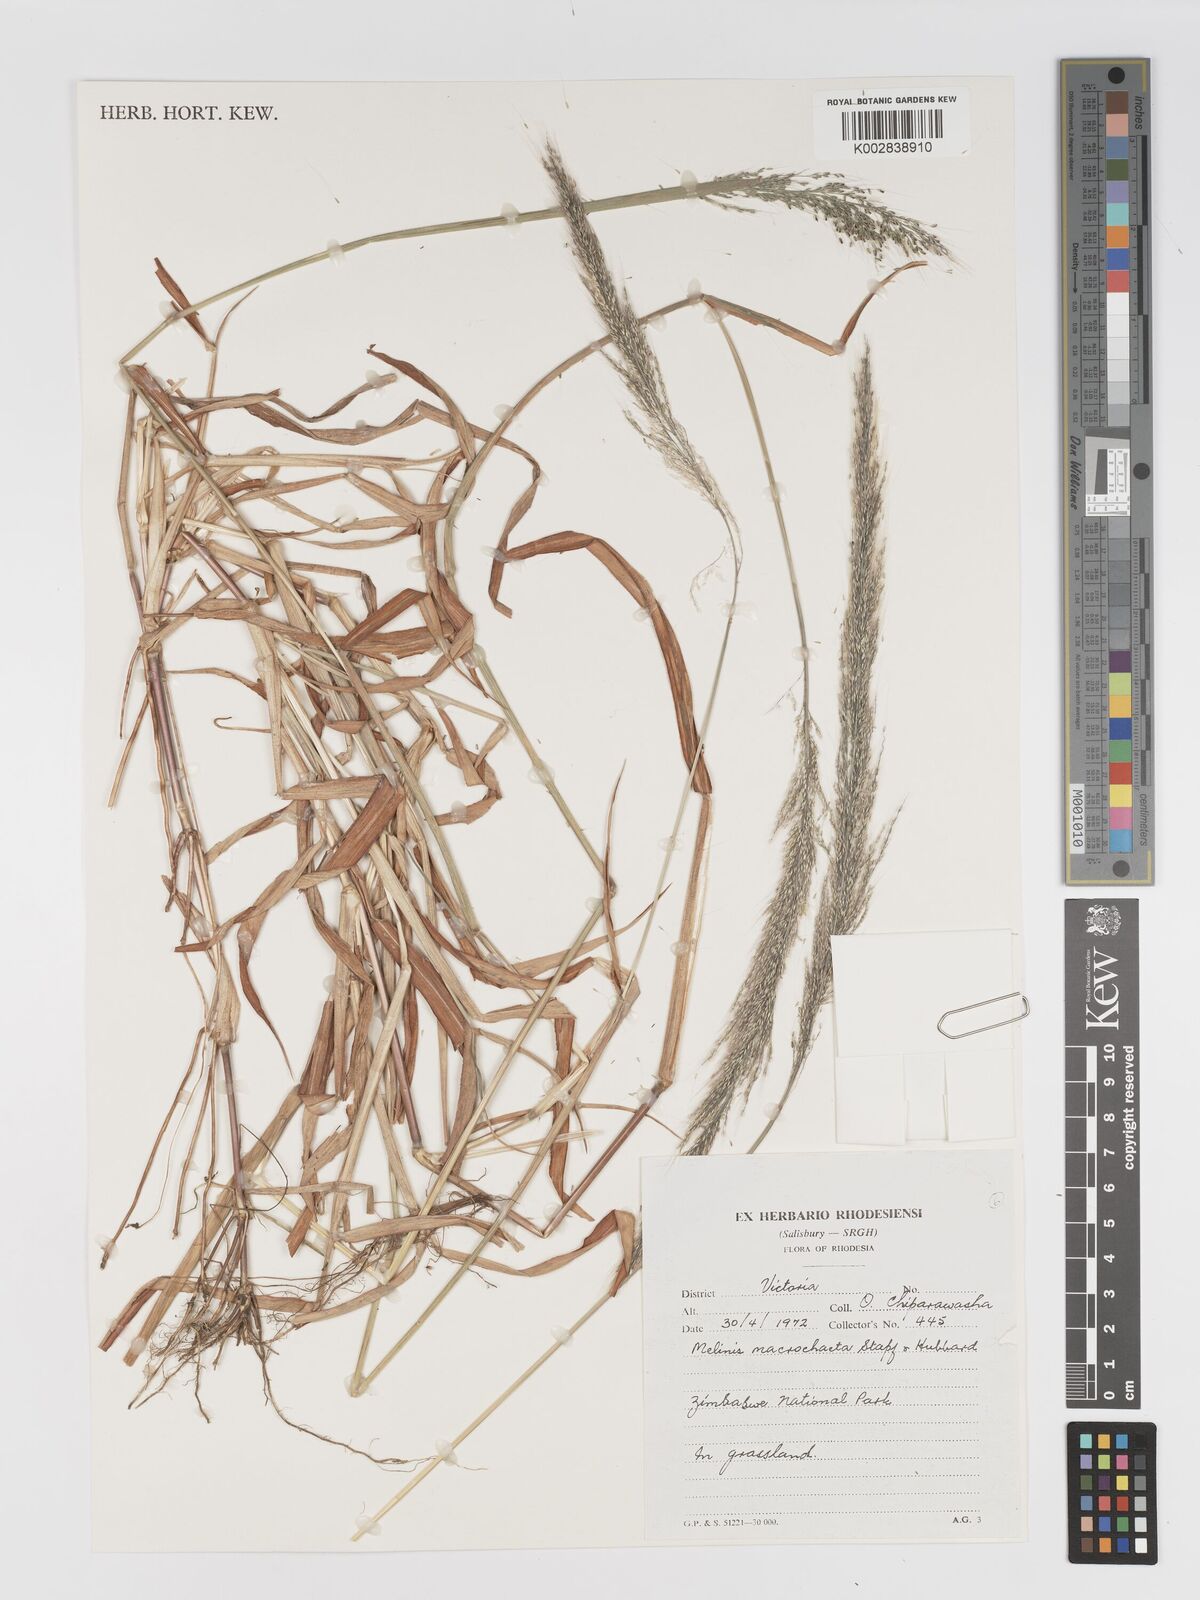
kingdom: Plantae
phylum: Tracheophyta
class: Liliopsida
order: Poales
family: Poaceae
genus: Melinis
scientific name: Melinis macrochaeta
